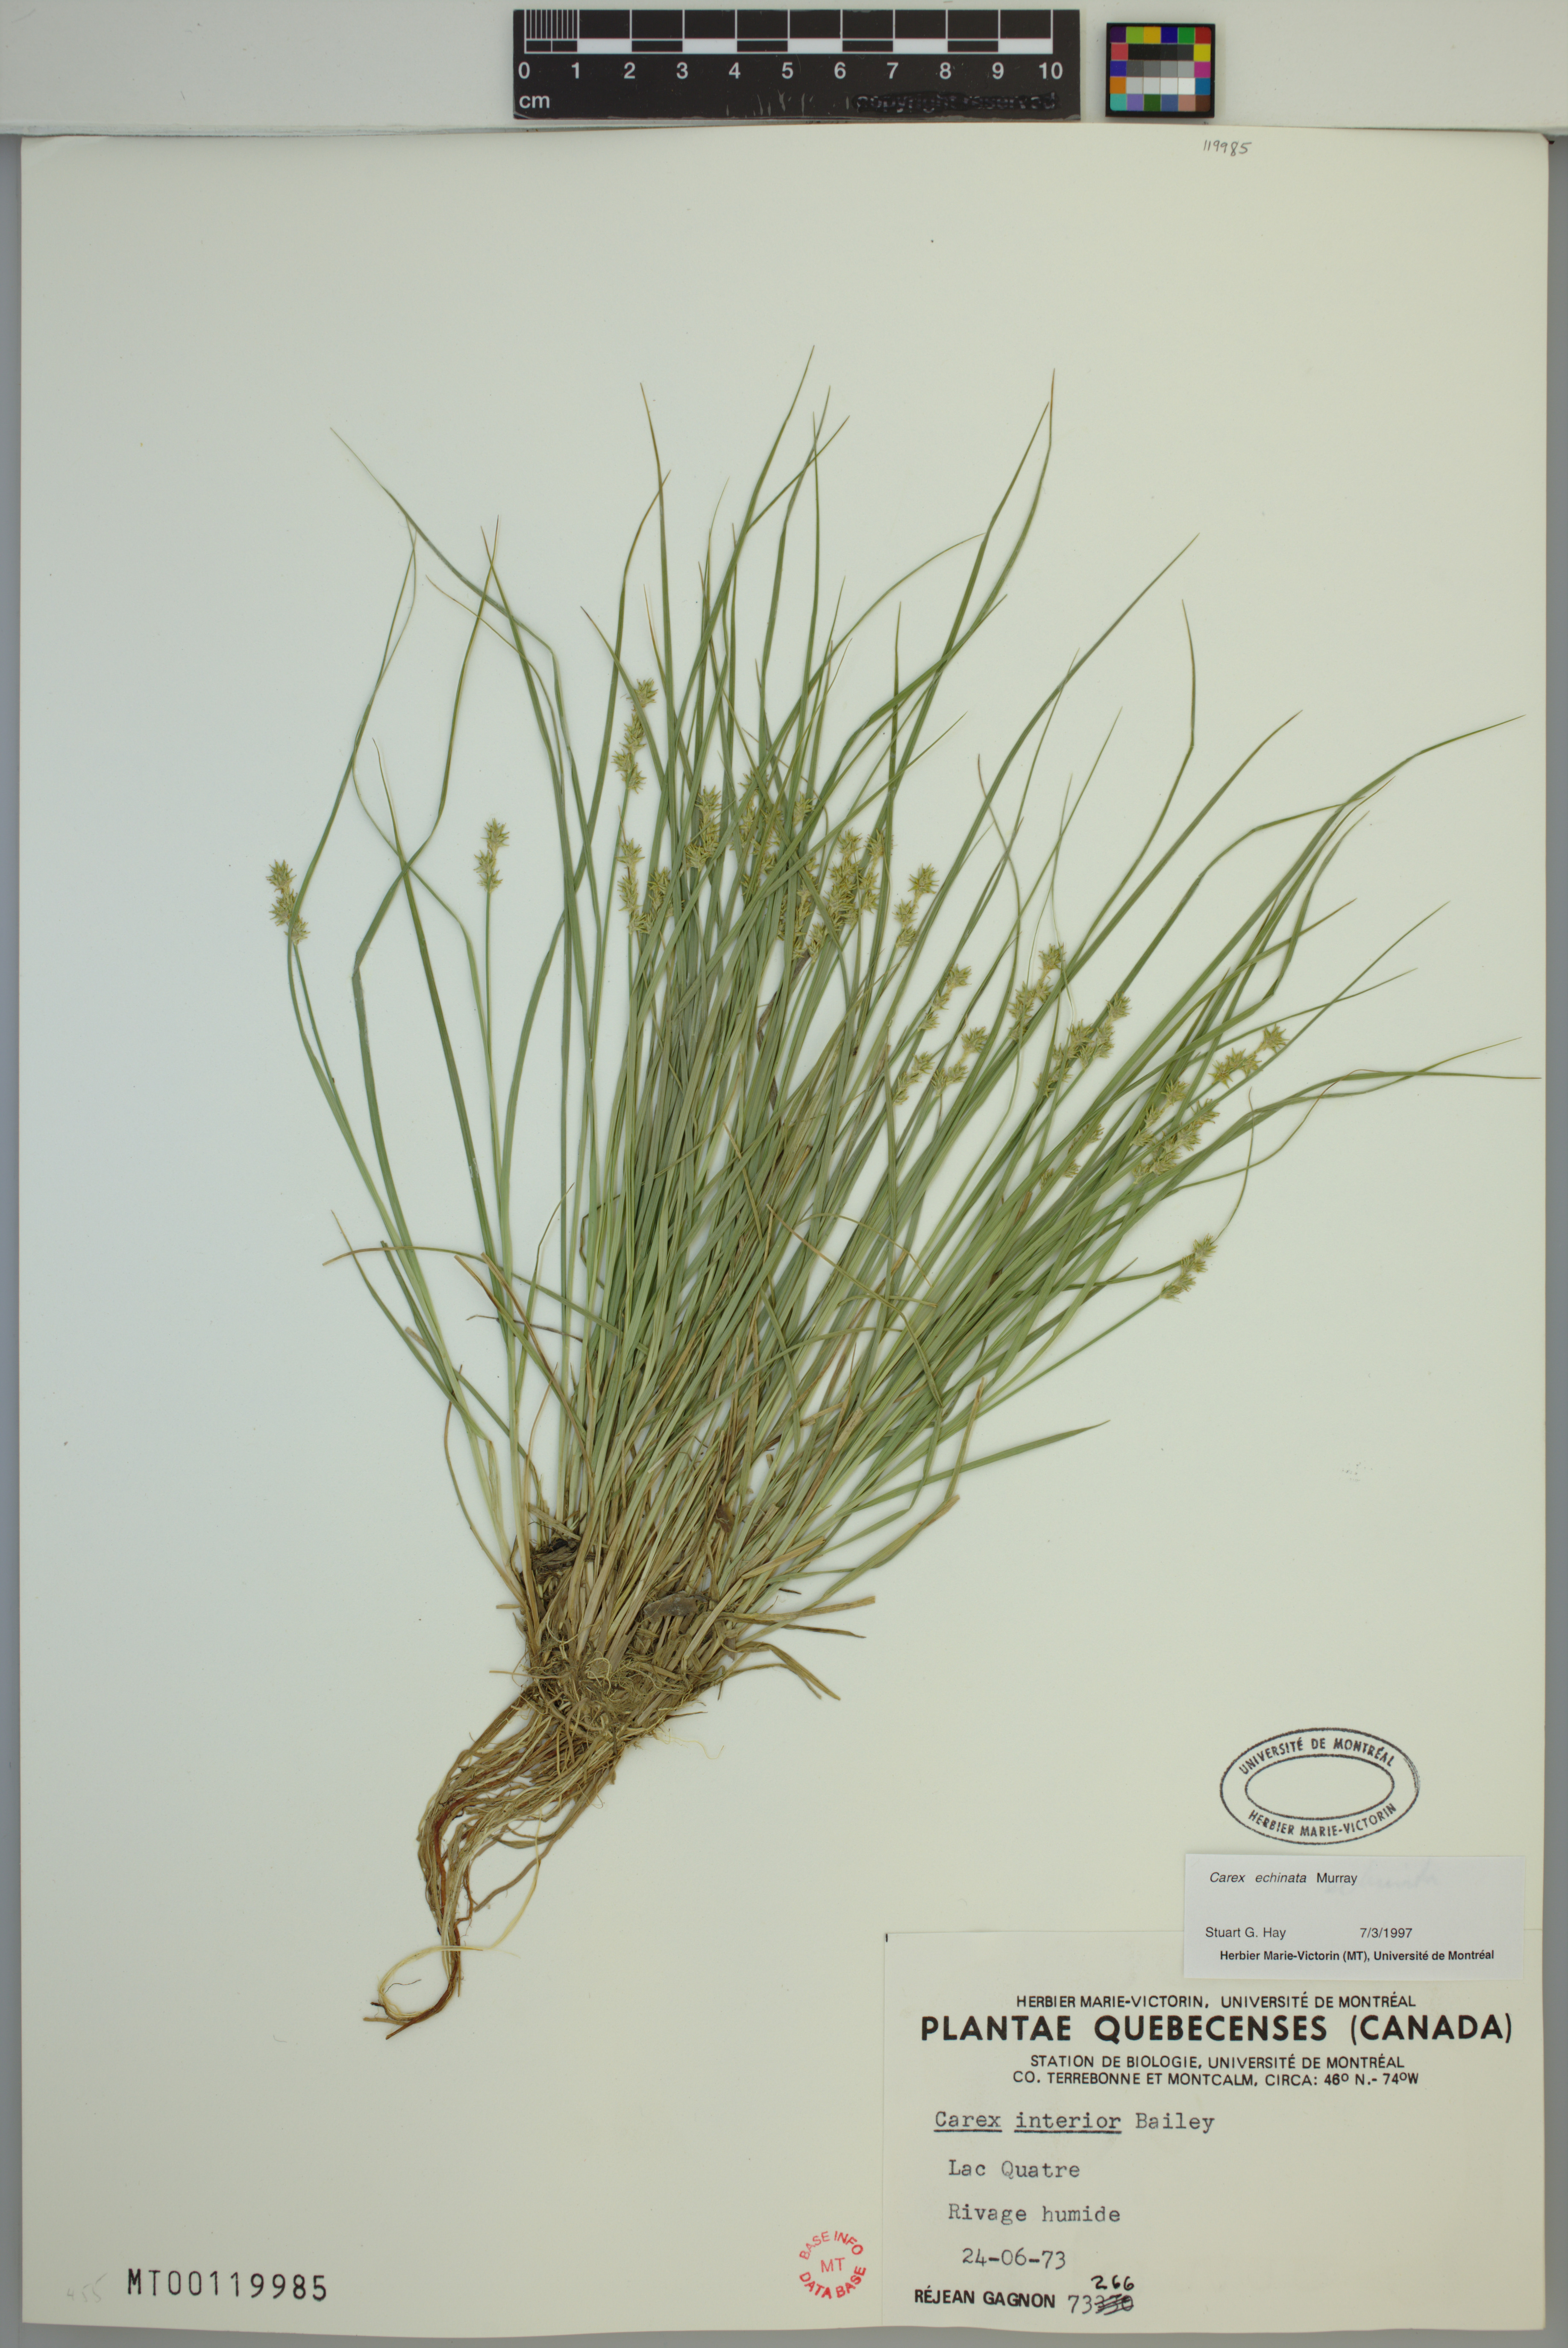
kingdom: Plantae
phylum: Tracheophyta
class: Liliopsida
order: Poales
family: Cyperaceae
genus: Carex
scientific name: Carex echinata
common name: Star sedge
